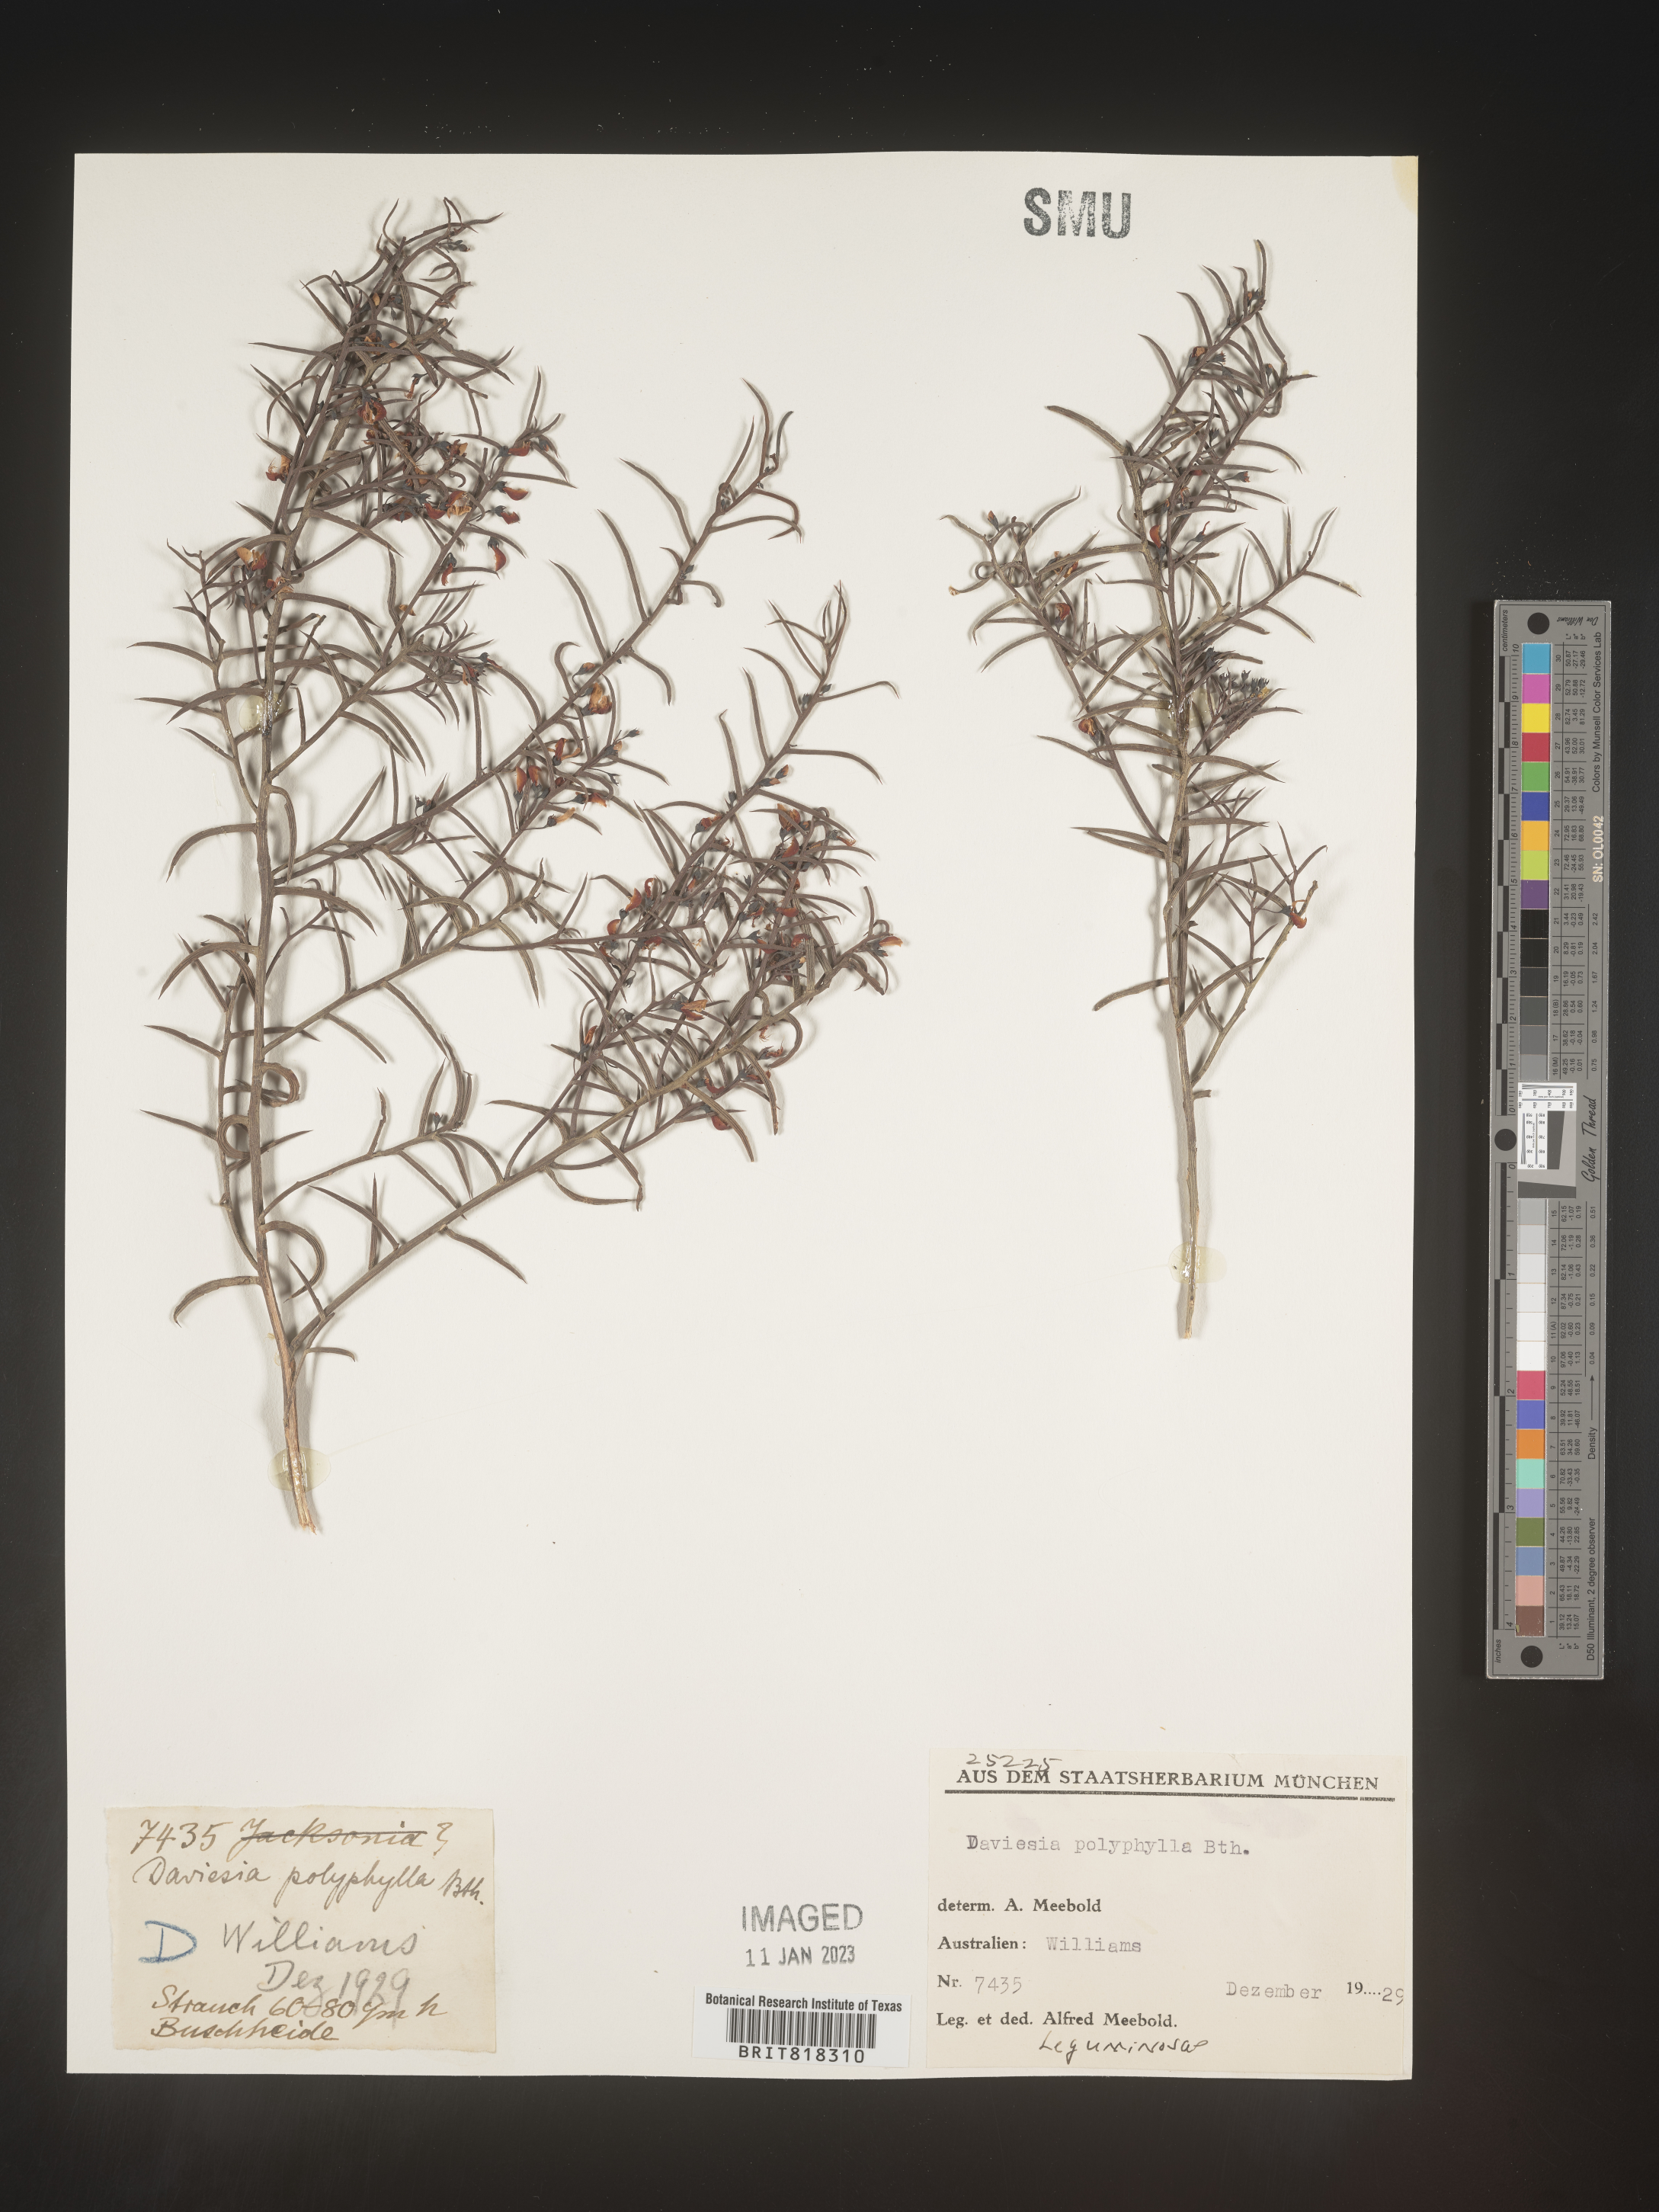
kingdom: Plantae
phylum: Tracheophyta
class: Magnoliopsida
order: Fabales
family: Fabaceae
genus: Daviesia
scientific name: Daviesia
